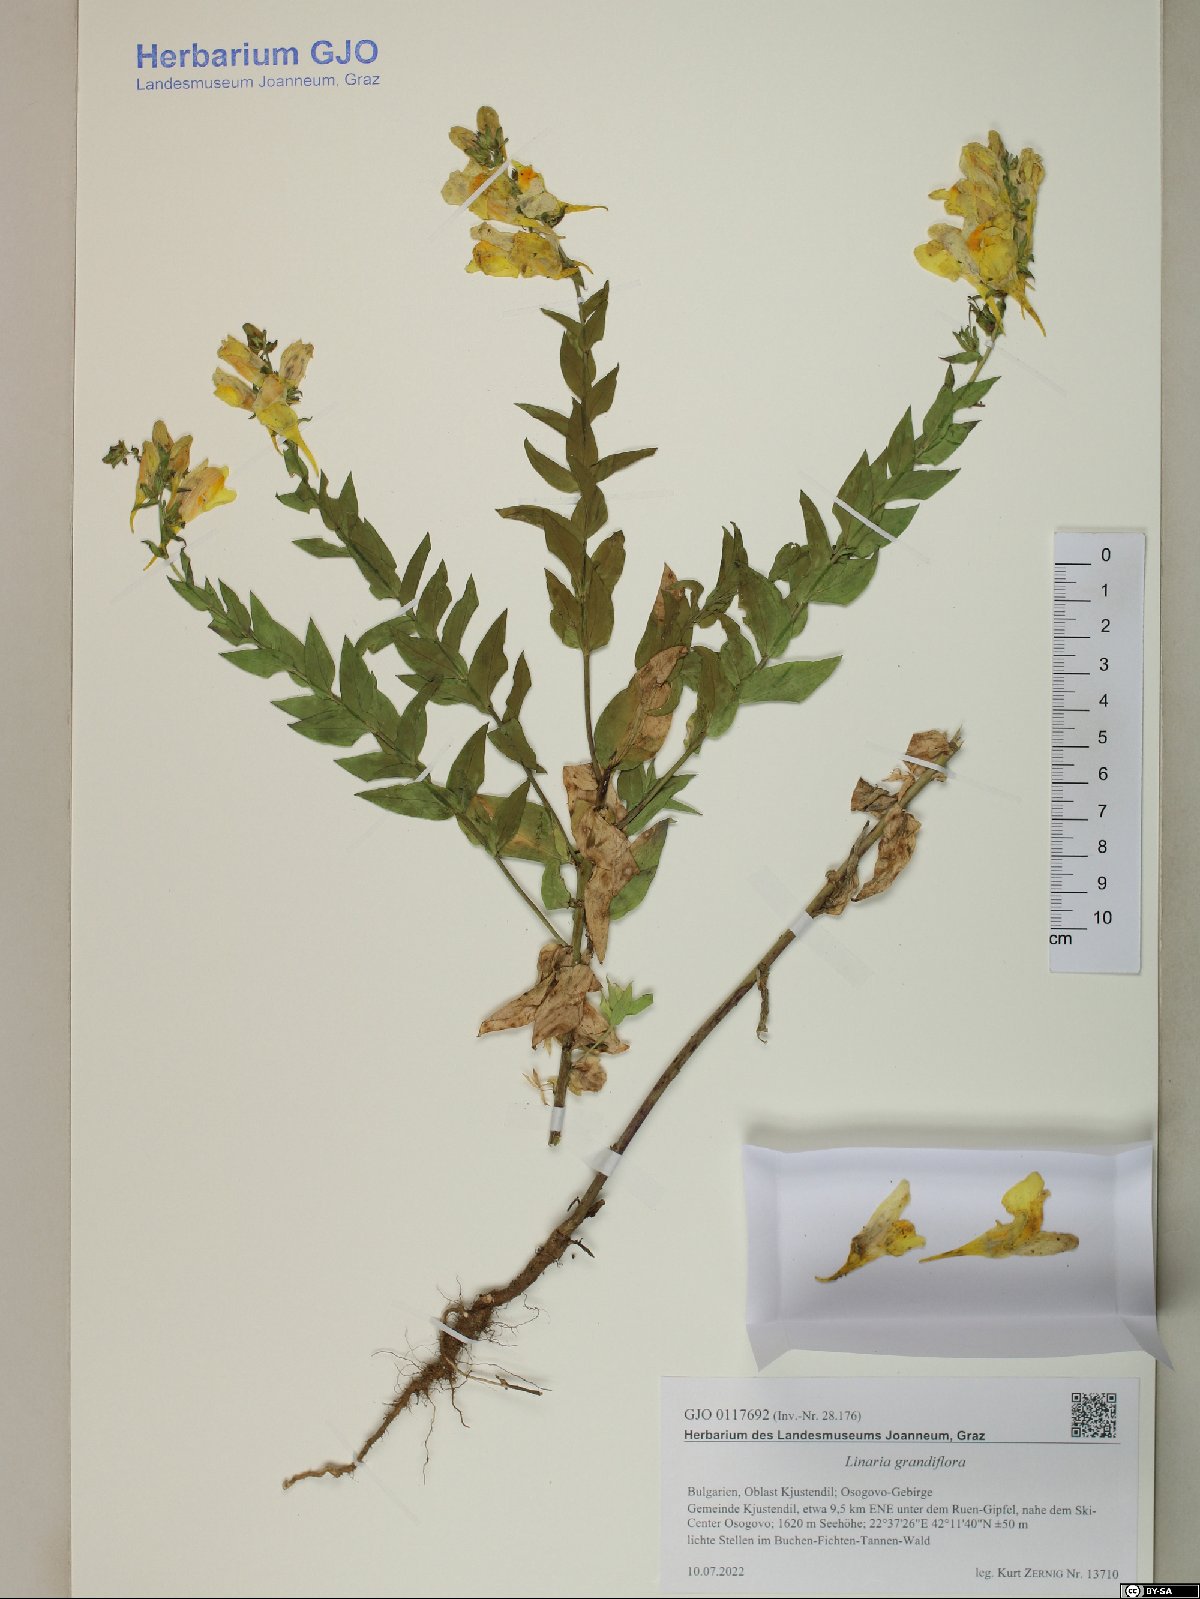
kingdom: Plantae
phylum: Tracheophyta
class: Magnoliopsida
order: Lamiales
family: Plantaginaceae
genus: Linaria
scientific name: Linaria grandiflora
